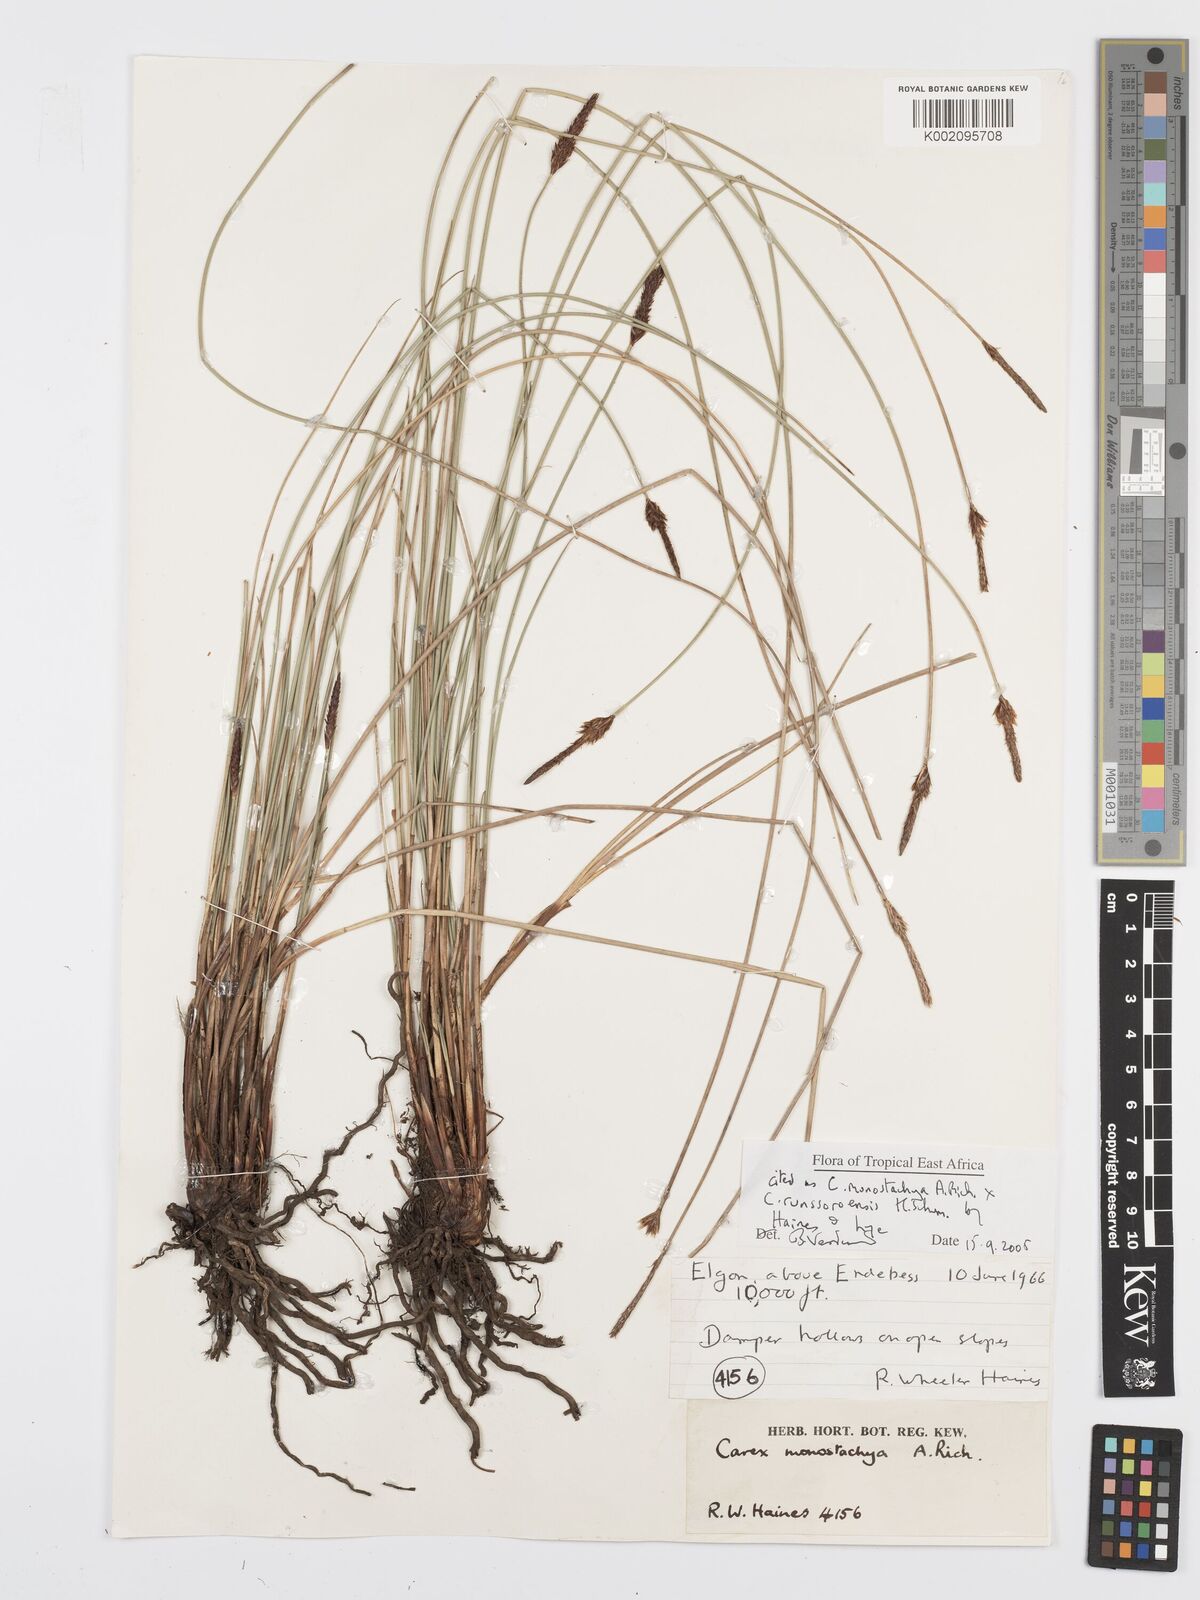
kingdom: Plantae
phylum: Tracheophyta
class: Liliopsida
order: Poales
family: Cyperaceae
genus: Carex
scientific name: Carex monostachya
